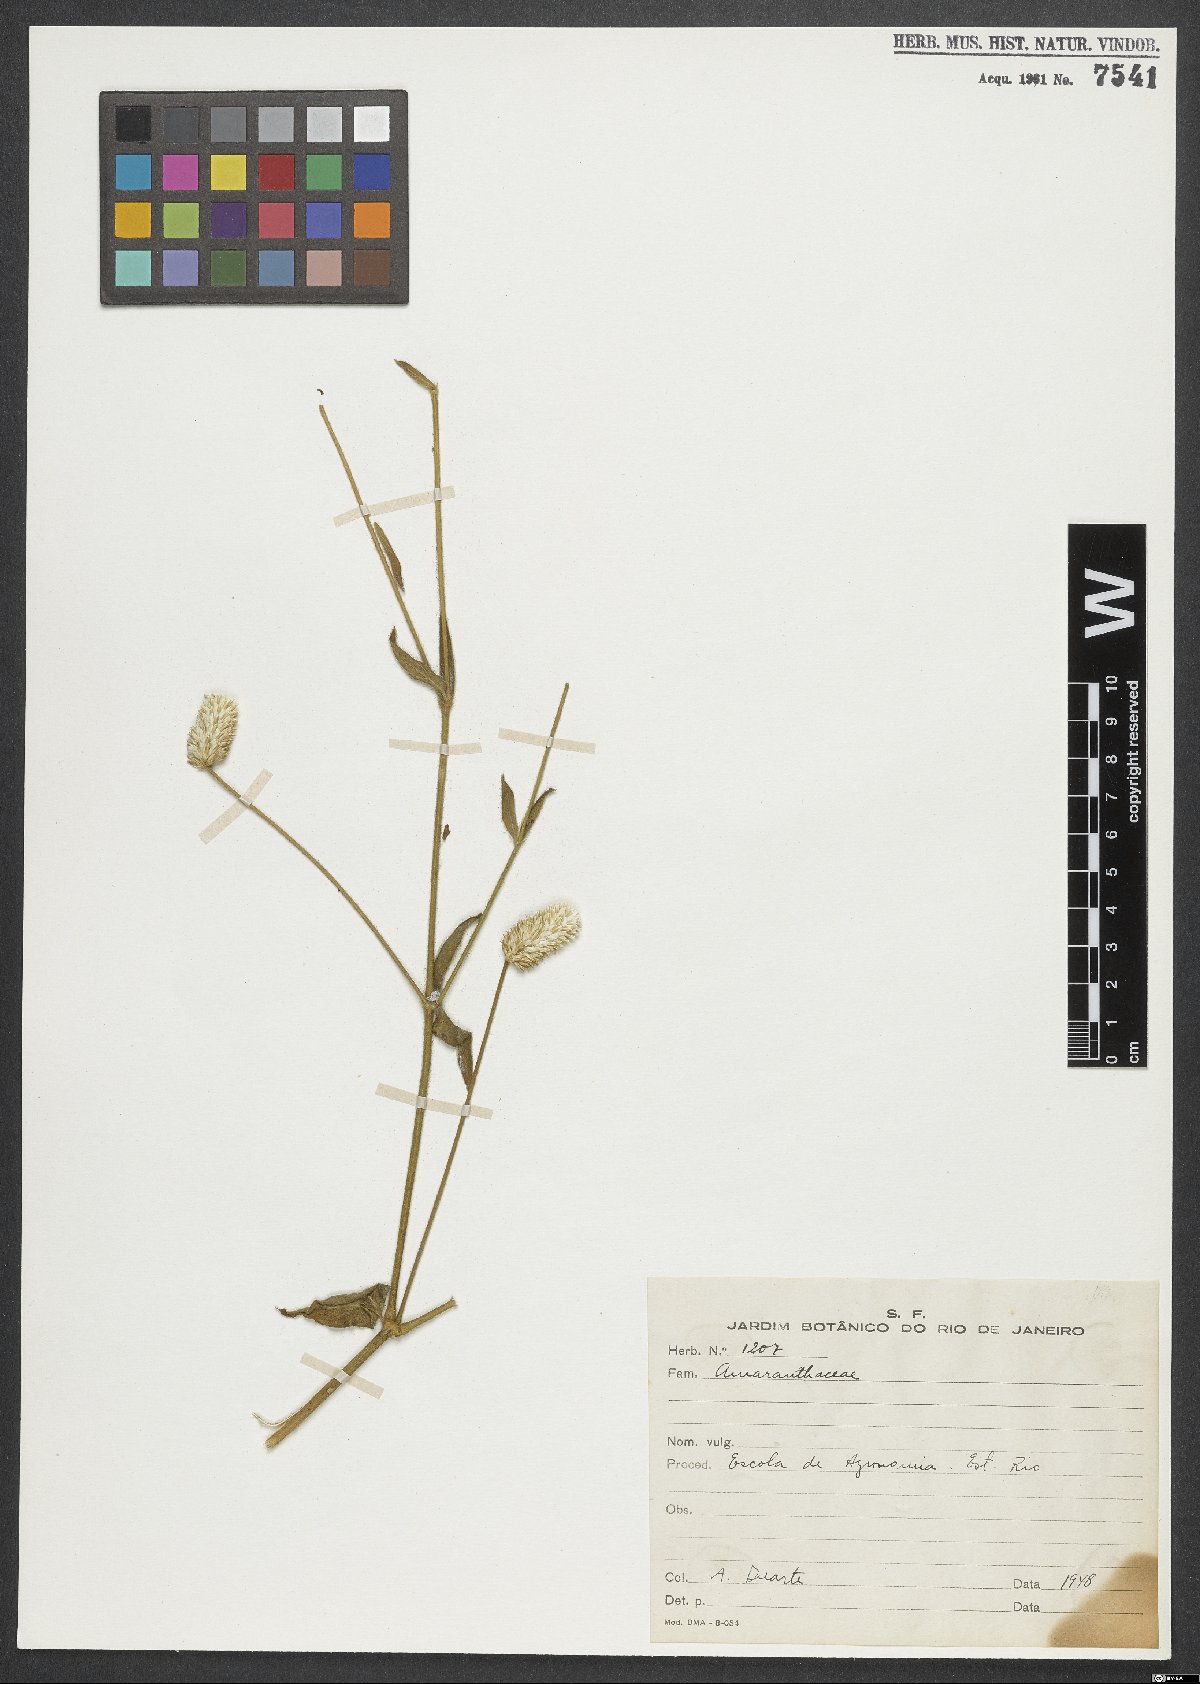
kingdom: Plantae
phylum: Tracheophyta
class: Magnoliopsida
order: Caryophyllales
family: Amaranthaceae
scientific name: Amaranthaceae
